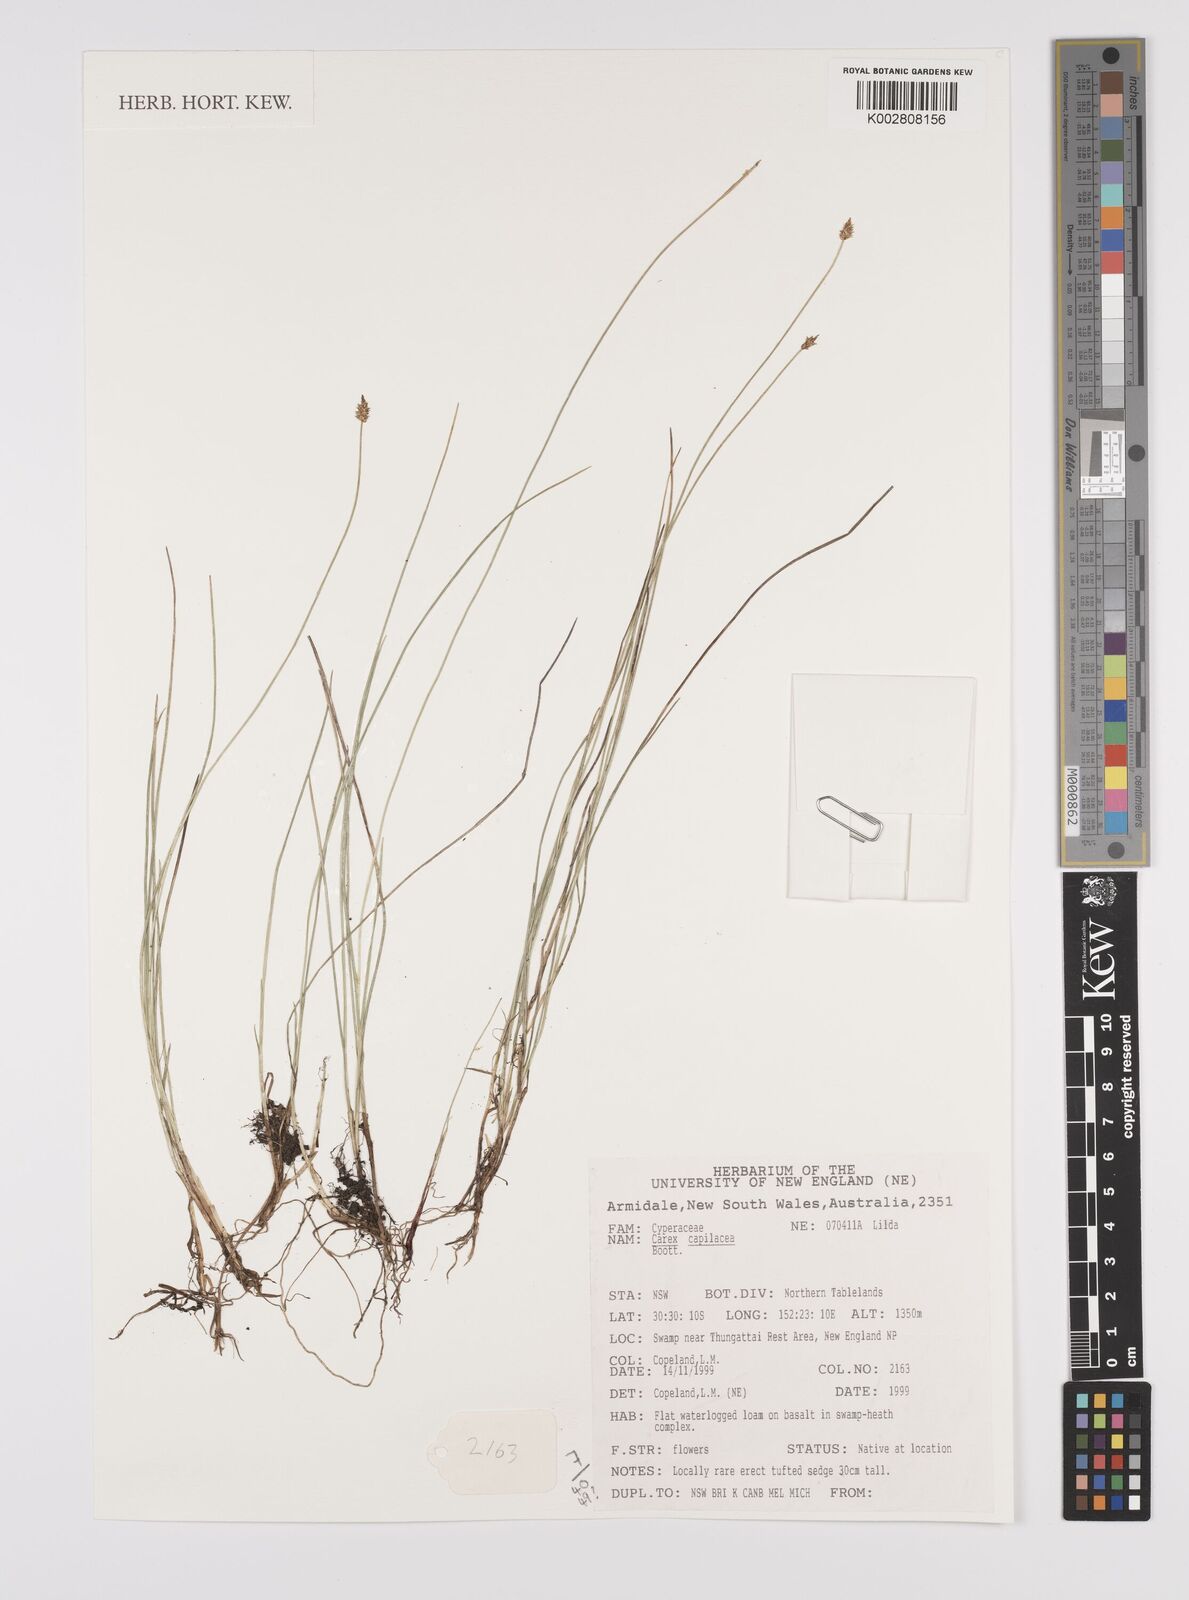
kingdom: Plantae
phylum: Tracheophyta
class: Liliopsida
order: Poales
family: Cyperaceae
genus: Carex
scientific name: Carex capillacea
